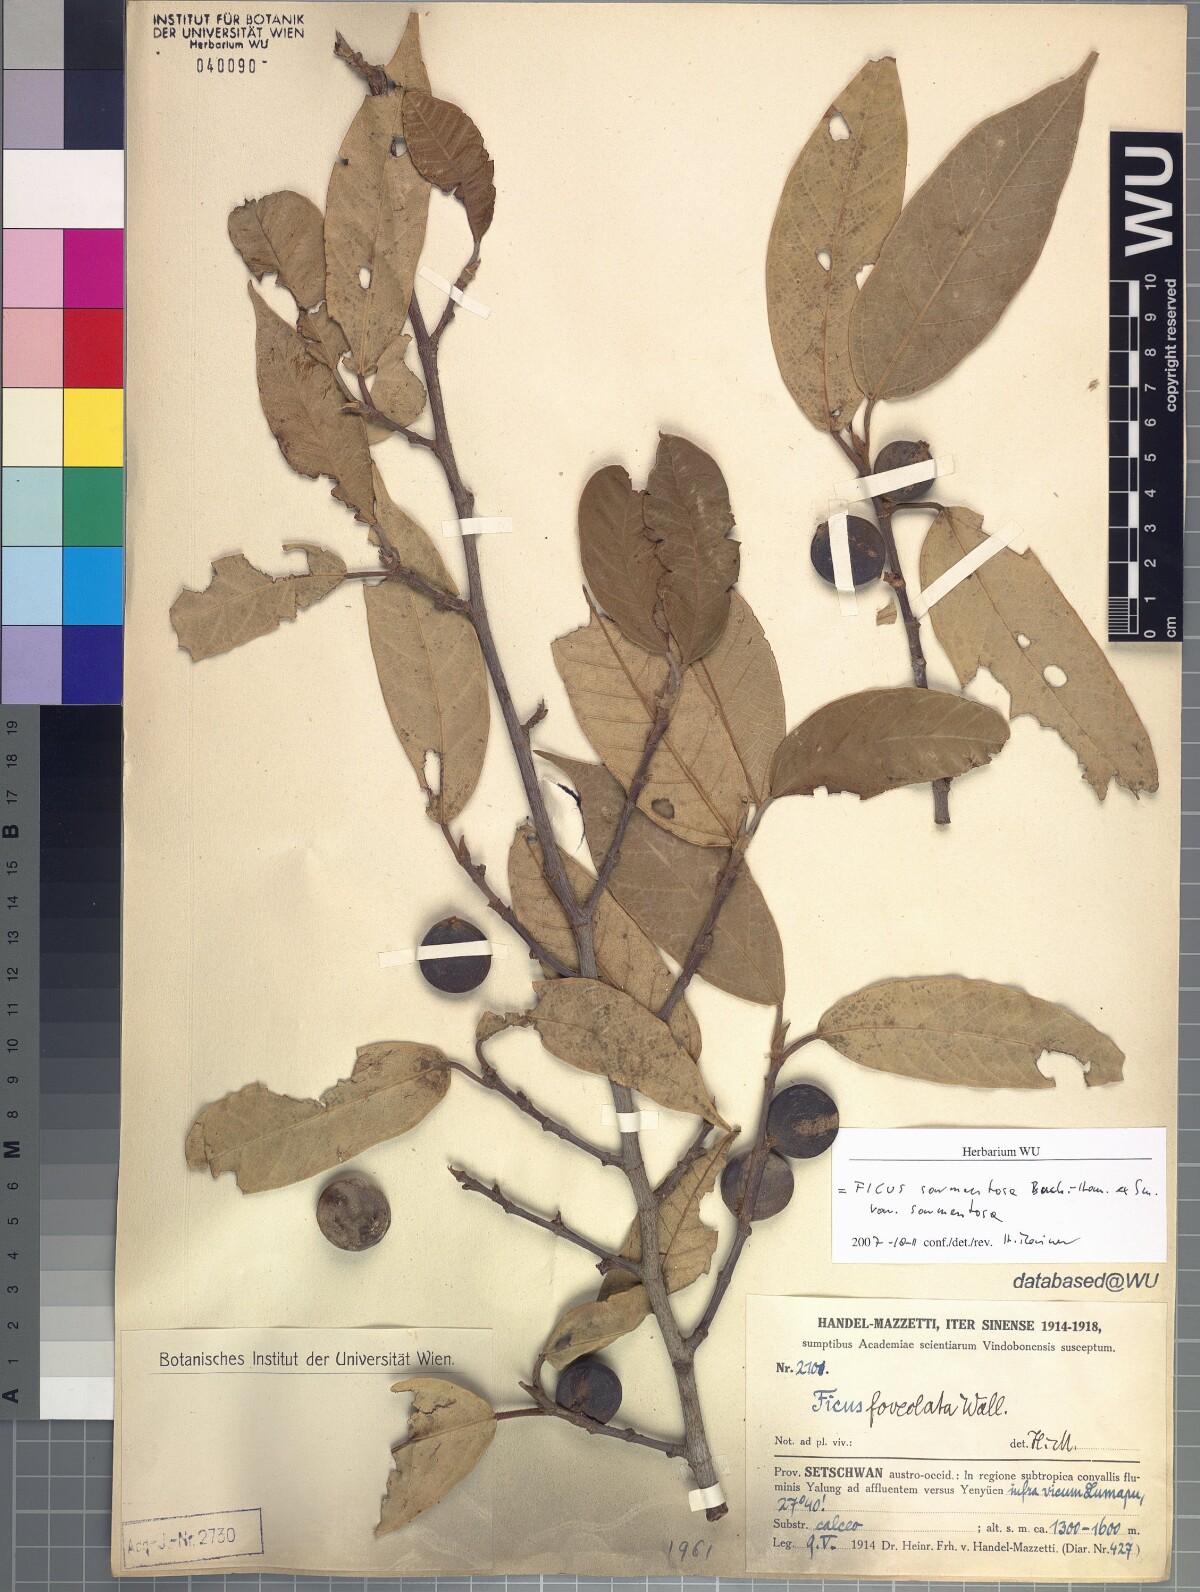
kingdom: Plantae
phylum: Tracheophyta
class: Magnoliopsida
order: Rosales
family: Moraceae
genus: Ficus
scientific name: Ficus sarmentosa
